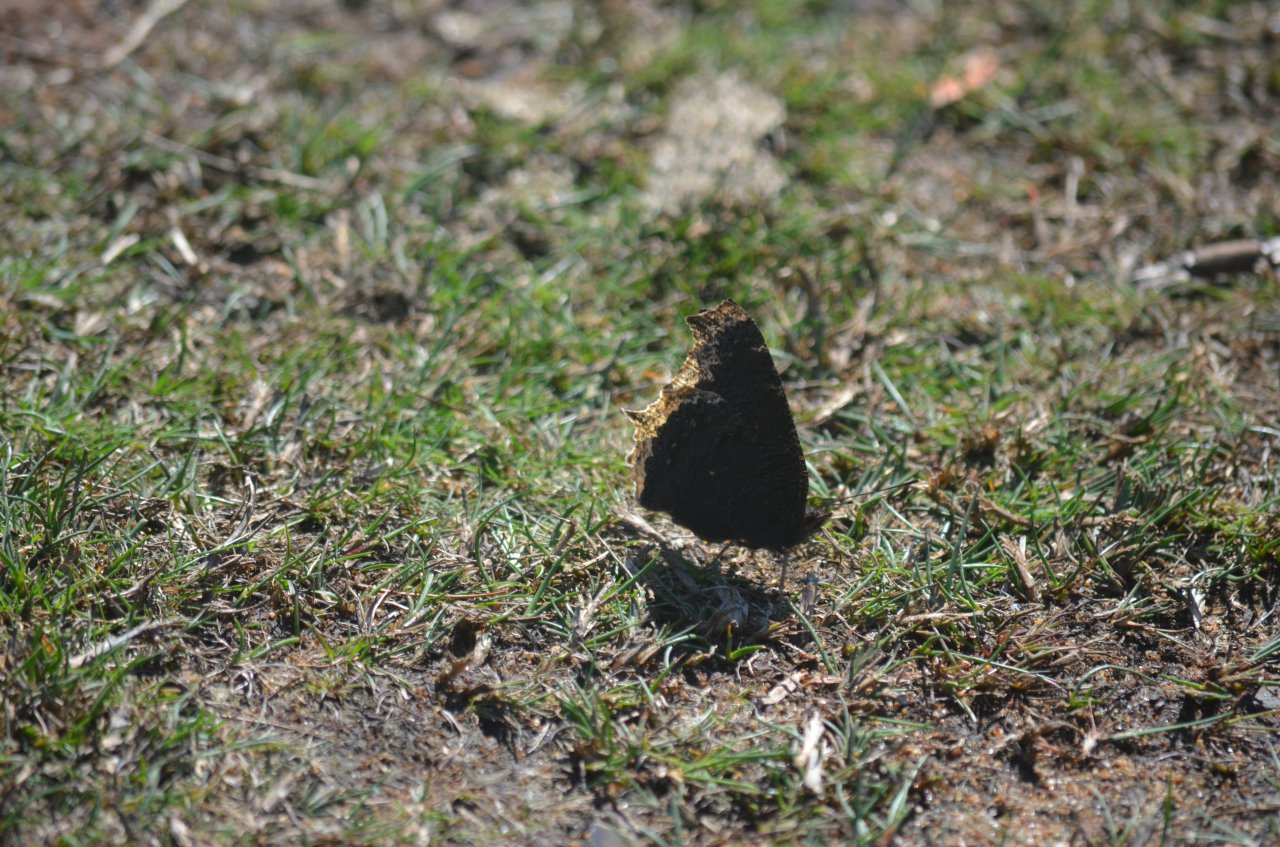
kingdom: Animalia
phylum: Arthropoda
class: Insecta
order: Lepidoptera
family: Nymphalidae
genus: Nymphalis
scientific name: Nymphalis antiopa
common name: Mourning Cloak
